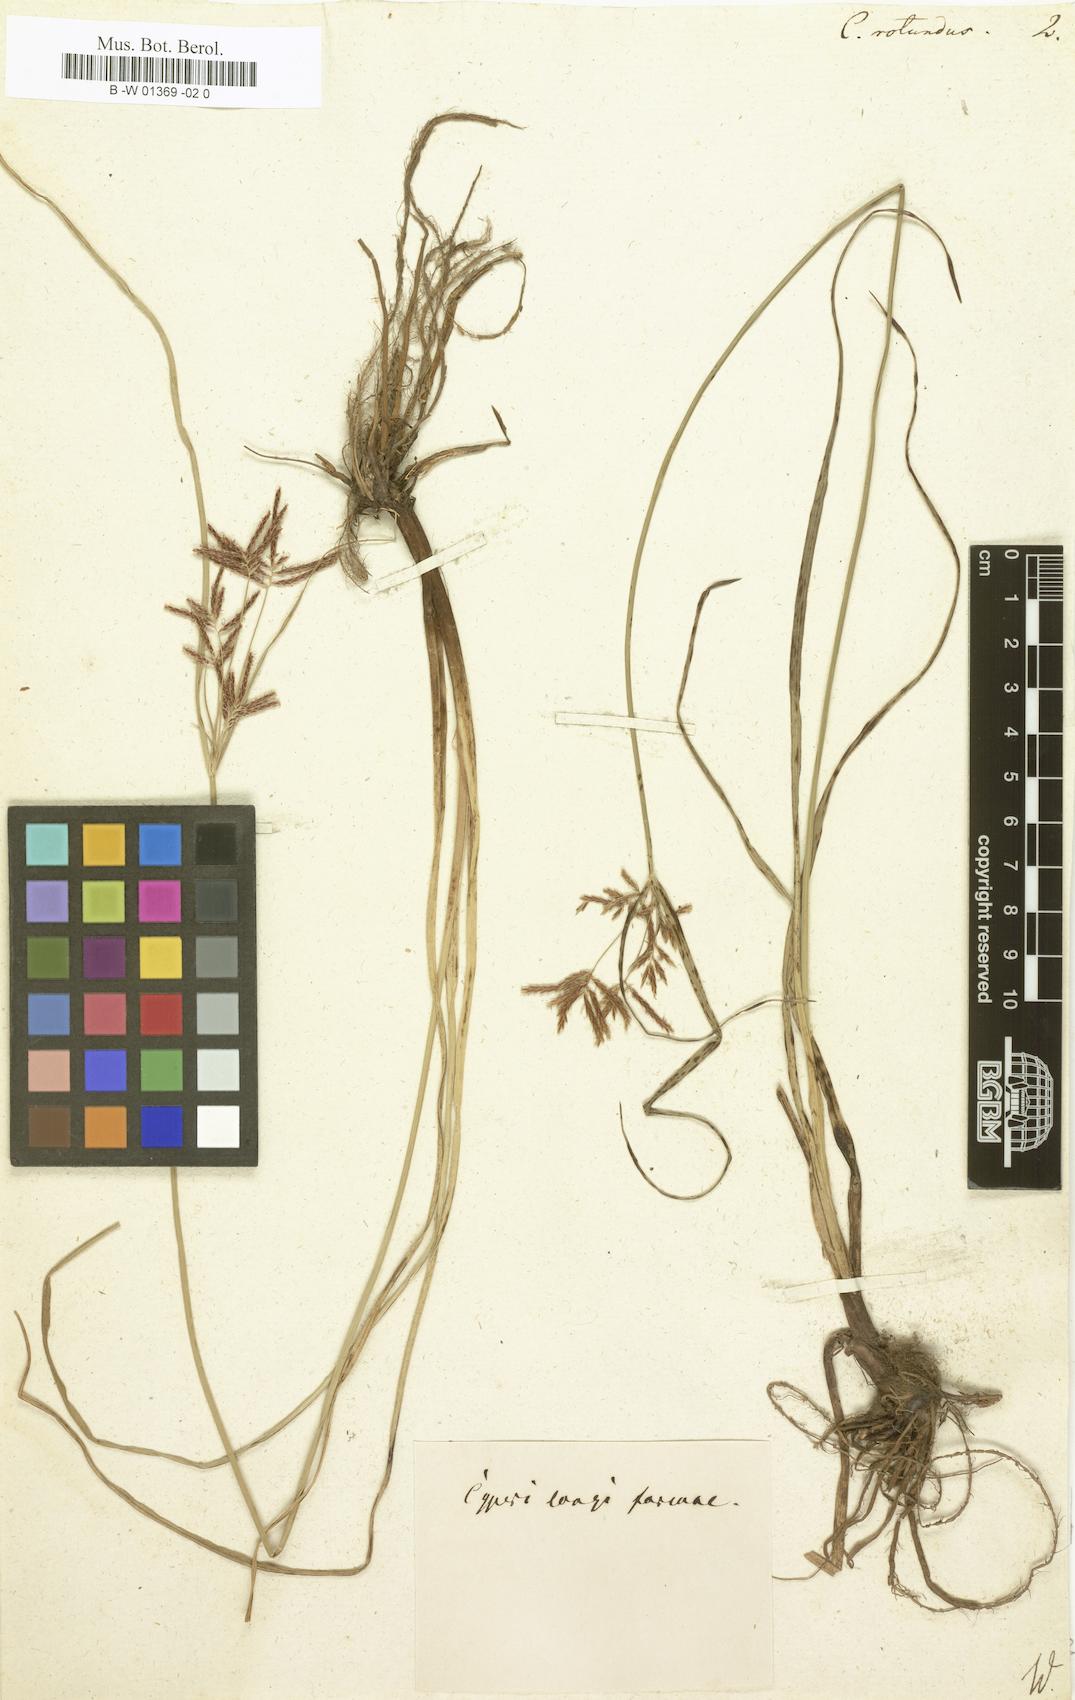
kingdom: Plantae
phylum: Tracheophyta
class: Liliopsida
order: Poales
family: Cyperaceae
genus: Cyperus
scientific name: Cyperus rotundus
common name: Nutgrass
